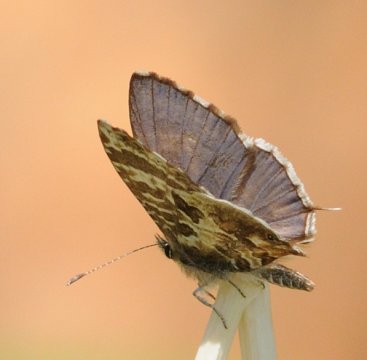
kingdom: Animalia
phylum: Arthropoda
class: Insecta
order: Lepidoptera
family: Lycaenidae
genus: Cacyreus
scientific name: Cacyreus lingeus
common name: Common Bush Blue
